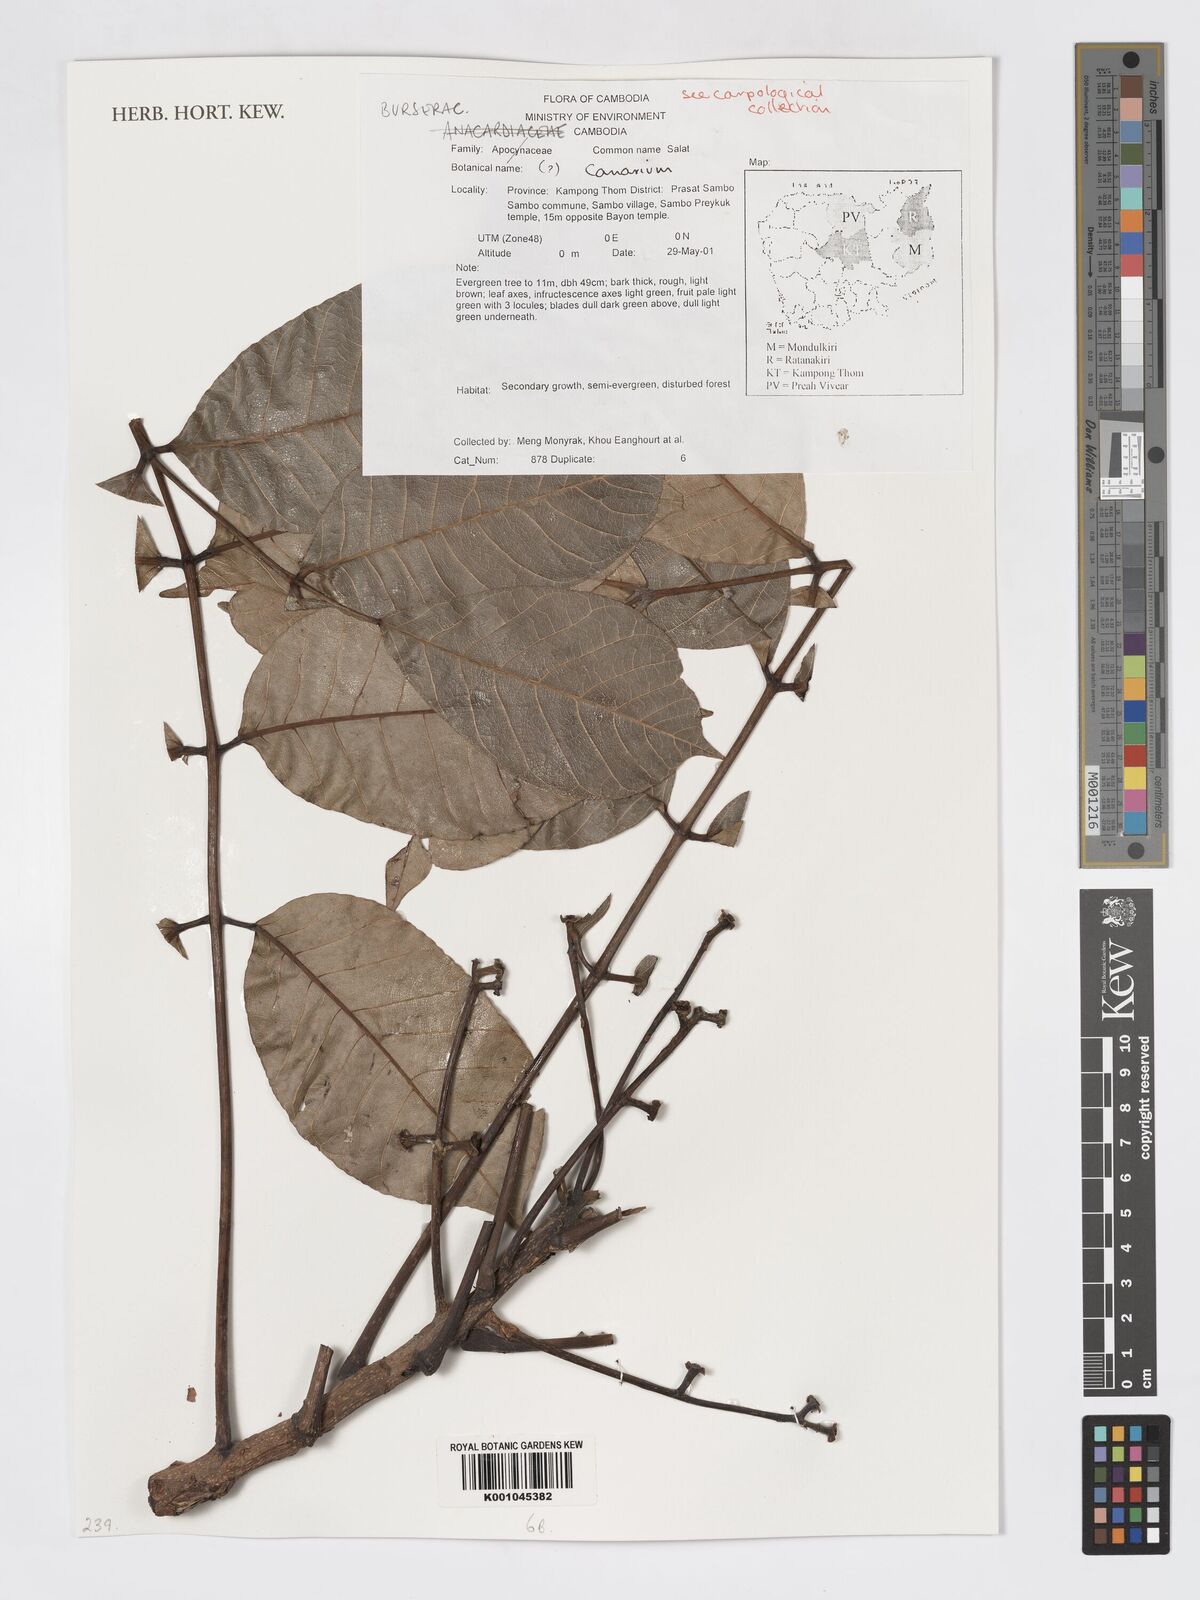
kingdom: Plantae
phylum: Tracheophyta
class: Magnoliopsida
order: Sapindales
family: Burseraceae
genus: Canarium
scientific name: Canarium
